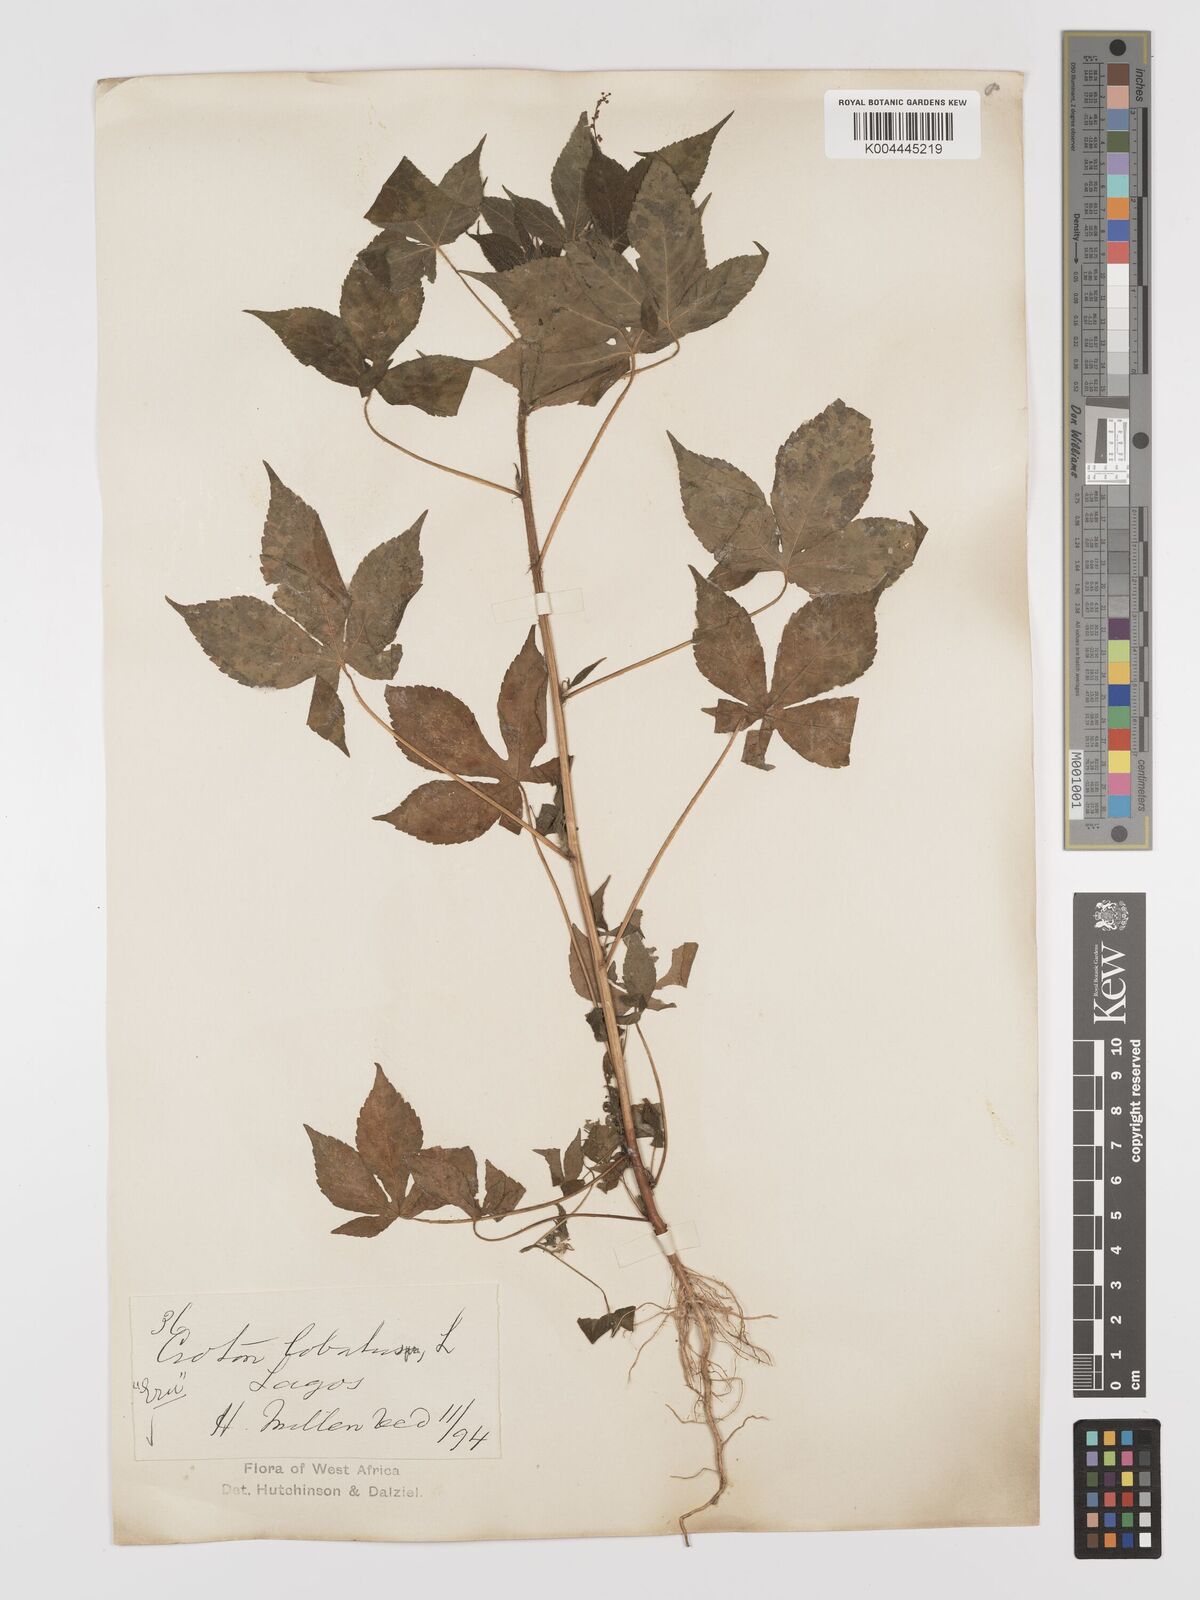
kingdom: Plantae
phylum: Tracheophyta
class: Magnoliopsida
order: Malpighiales
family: Euphorbiaceae
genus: Astraea
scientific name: Astraea lobata
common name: Lobed croton
